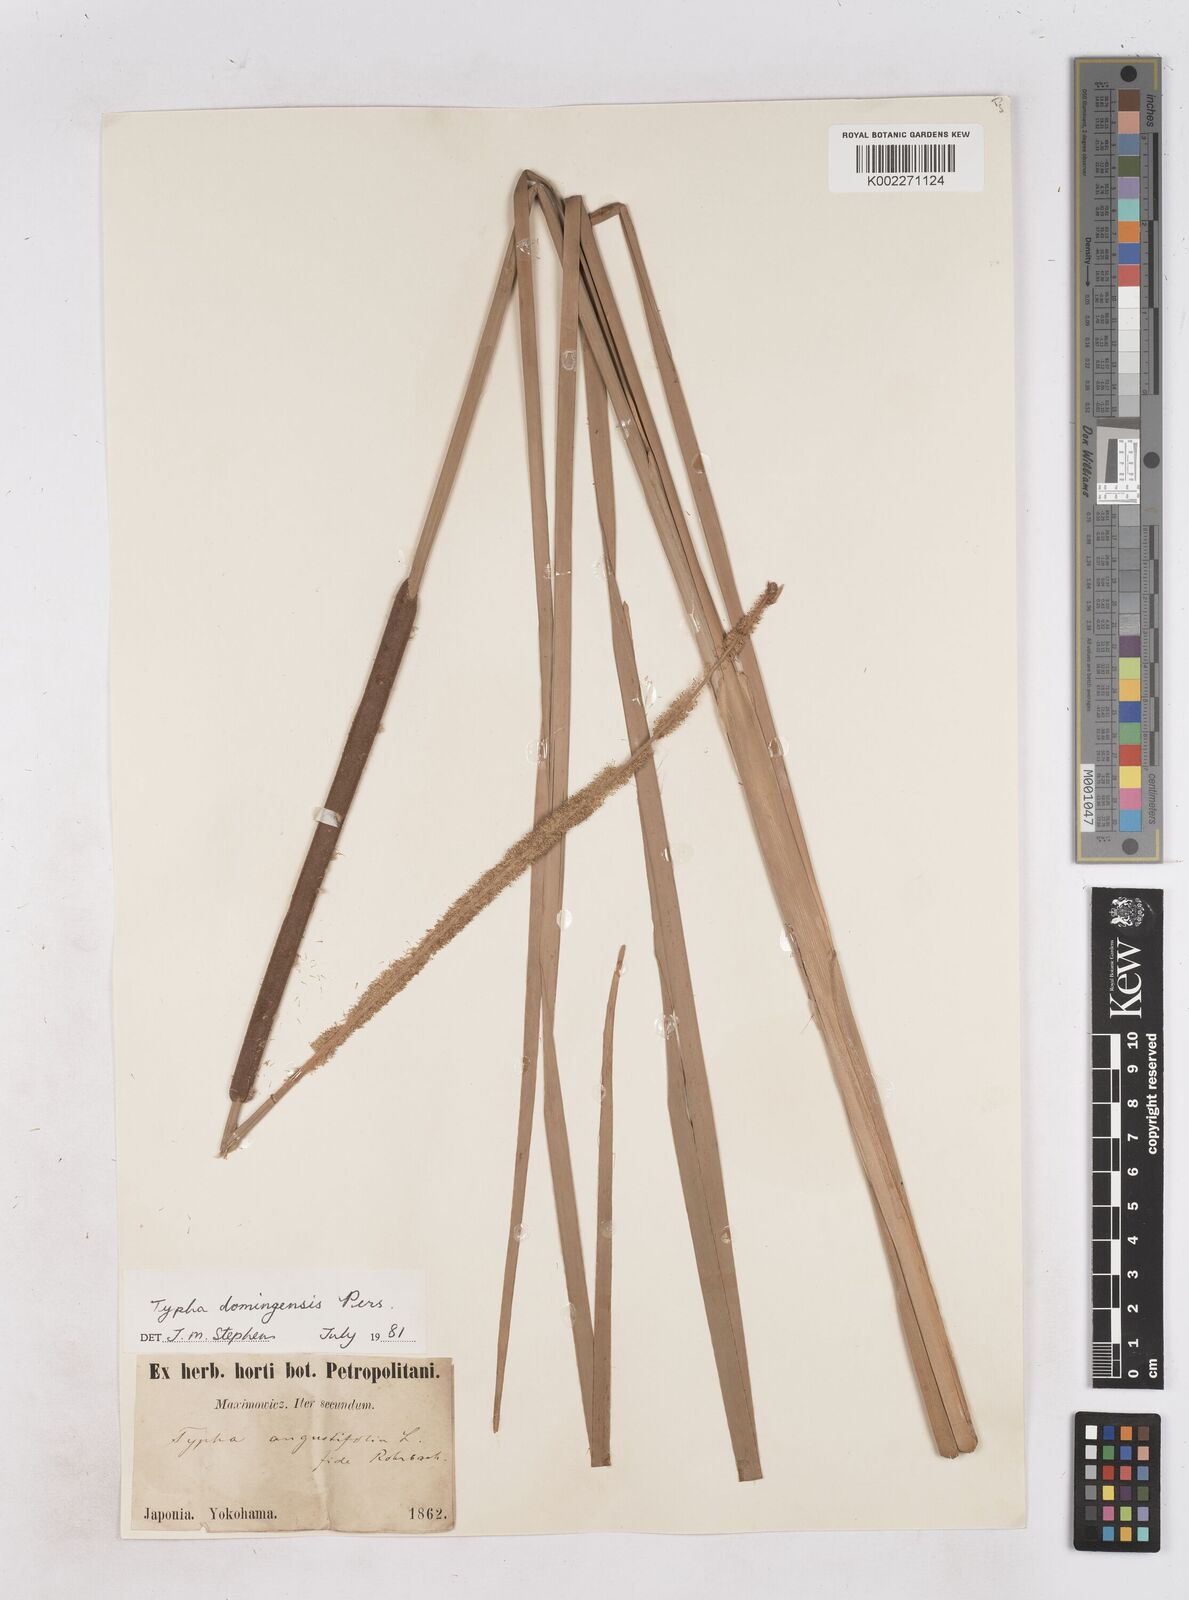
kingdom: Plantae
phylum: Tracheophyta
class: Liliopsida
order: Poales
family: Typhaceae
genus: Typha
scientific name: Typha domingensis
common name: Southern cattail
